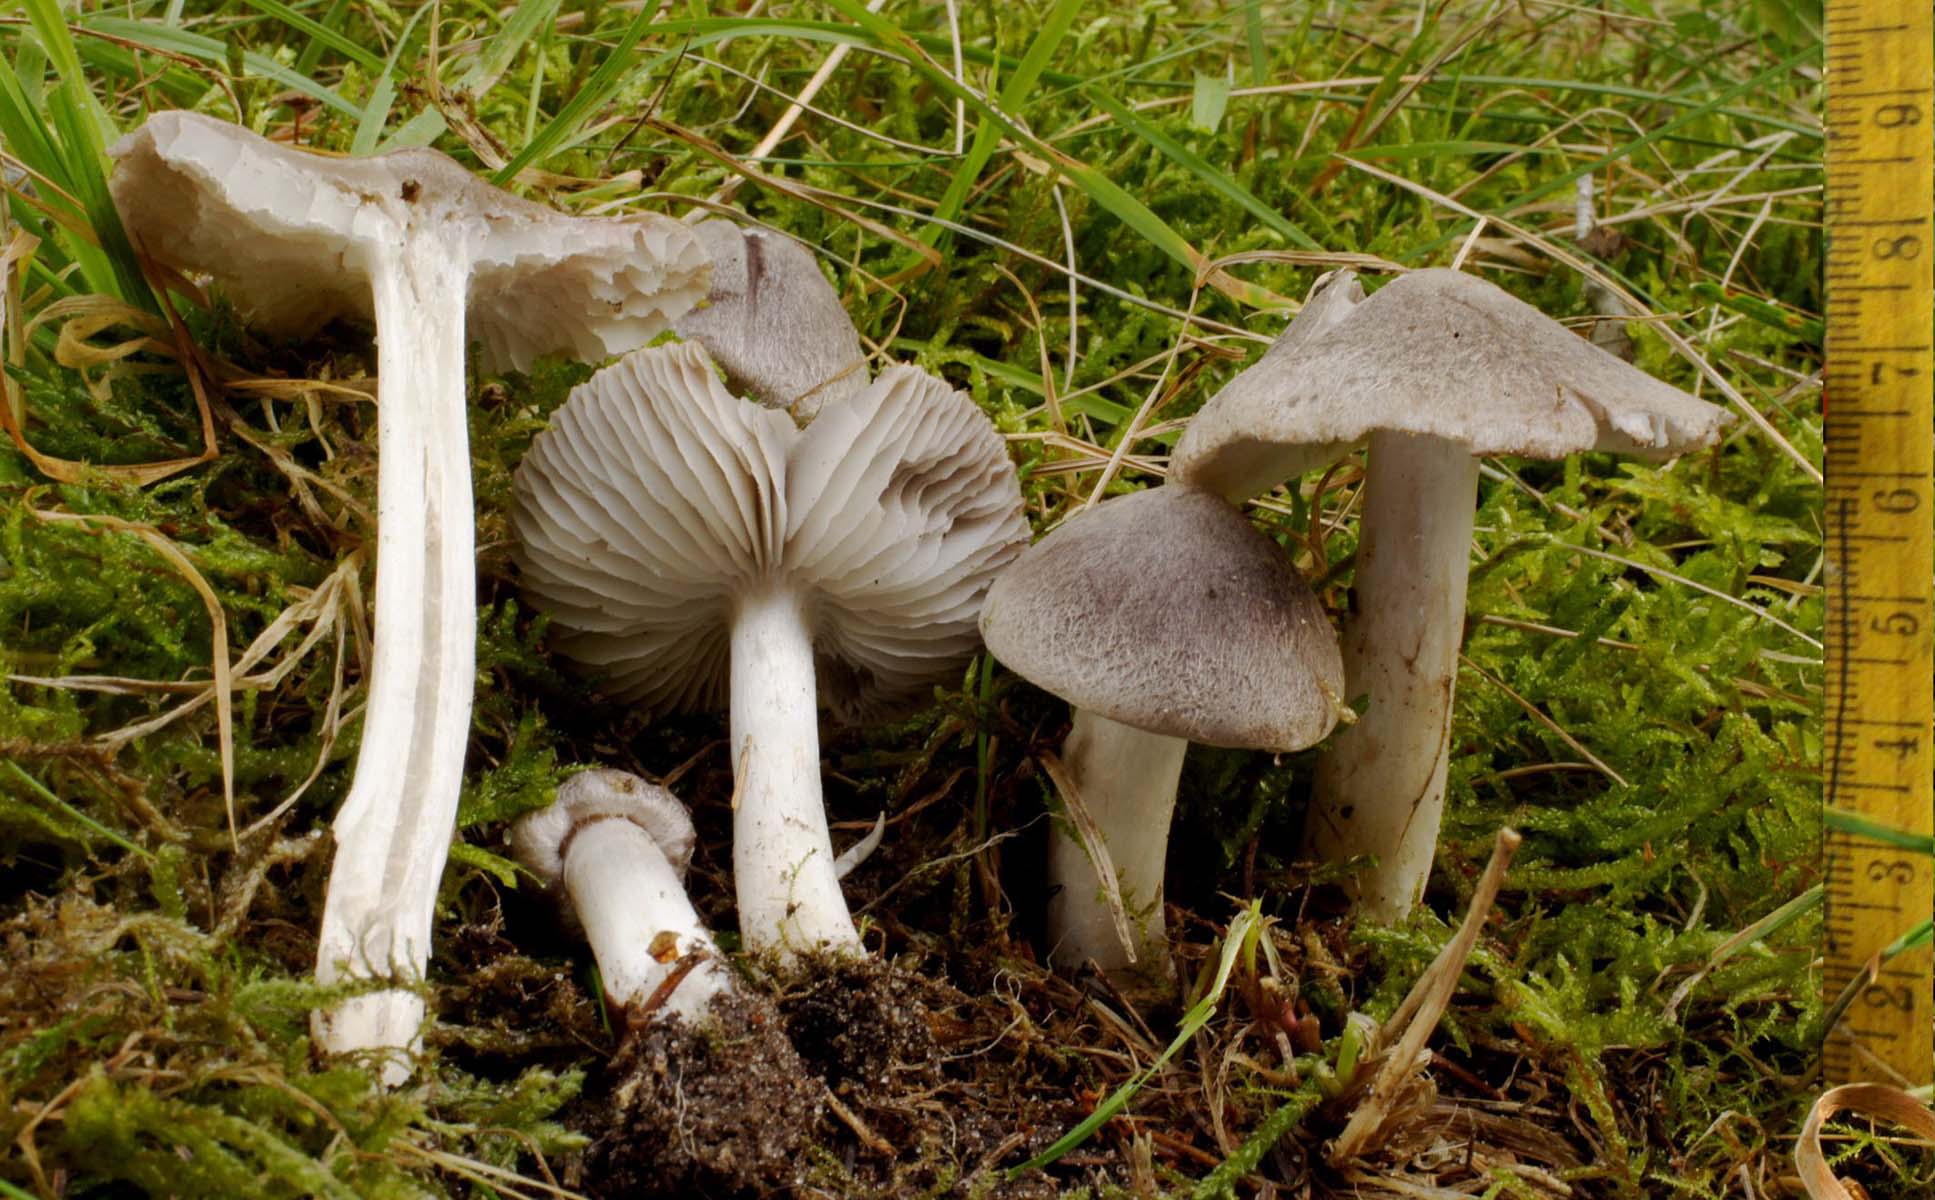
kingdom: Fungi
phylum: Basidiomycota
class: Agaricomycetes
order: Agaricales
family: Tricholomataceae
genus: Tricholoma
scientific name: Tricholoma terreum
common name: jordfarvet ridderhat
